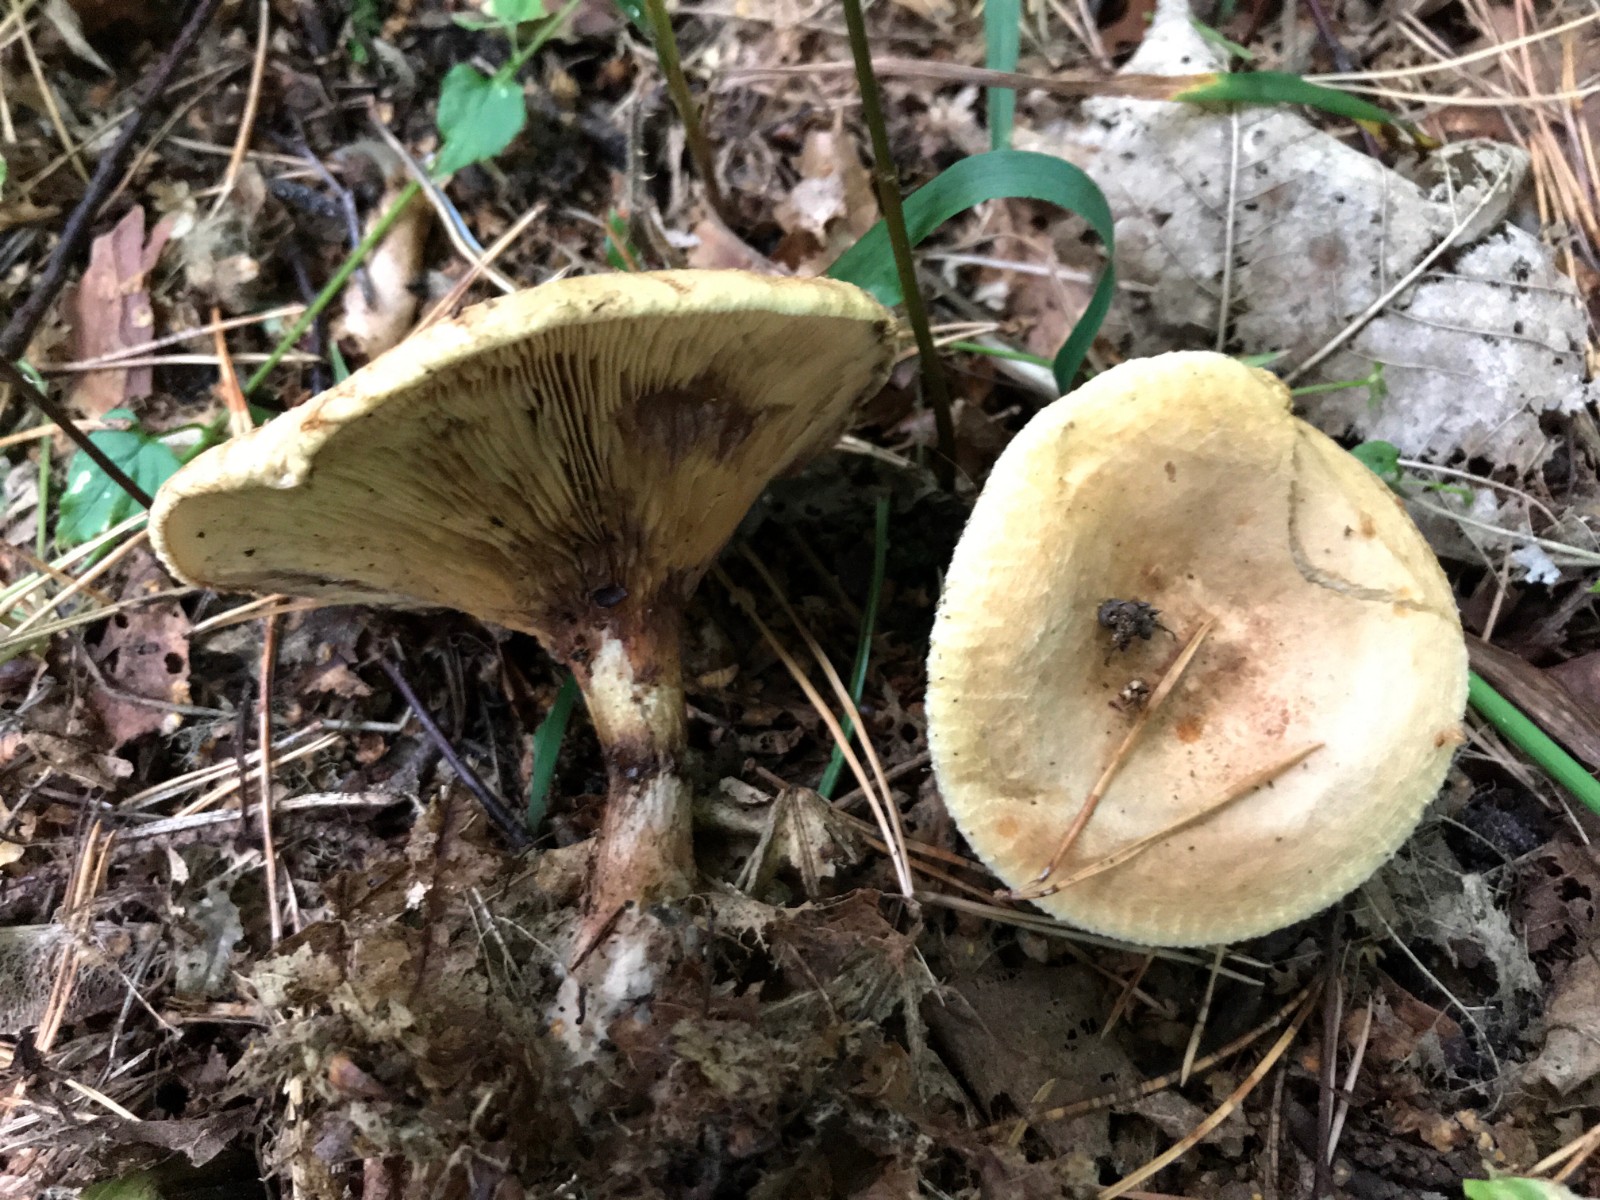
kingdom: Fungi
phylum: Basidiomycota
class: Agaricomycetes
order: Boletales
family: Paxillaceae
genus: Paxillus
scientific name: Paxillus involutus
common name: almindelig netbladhat
